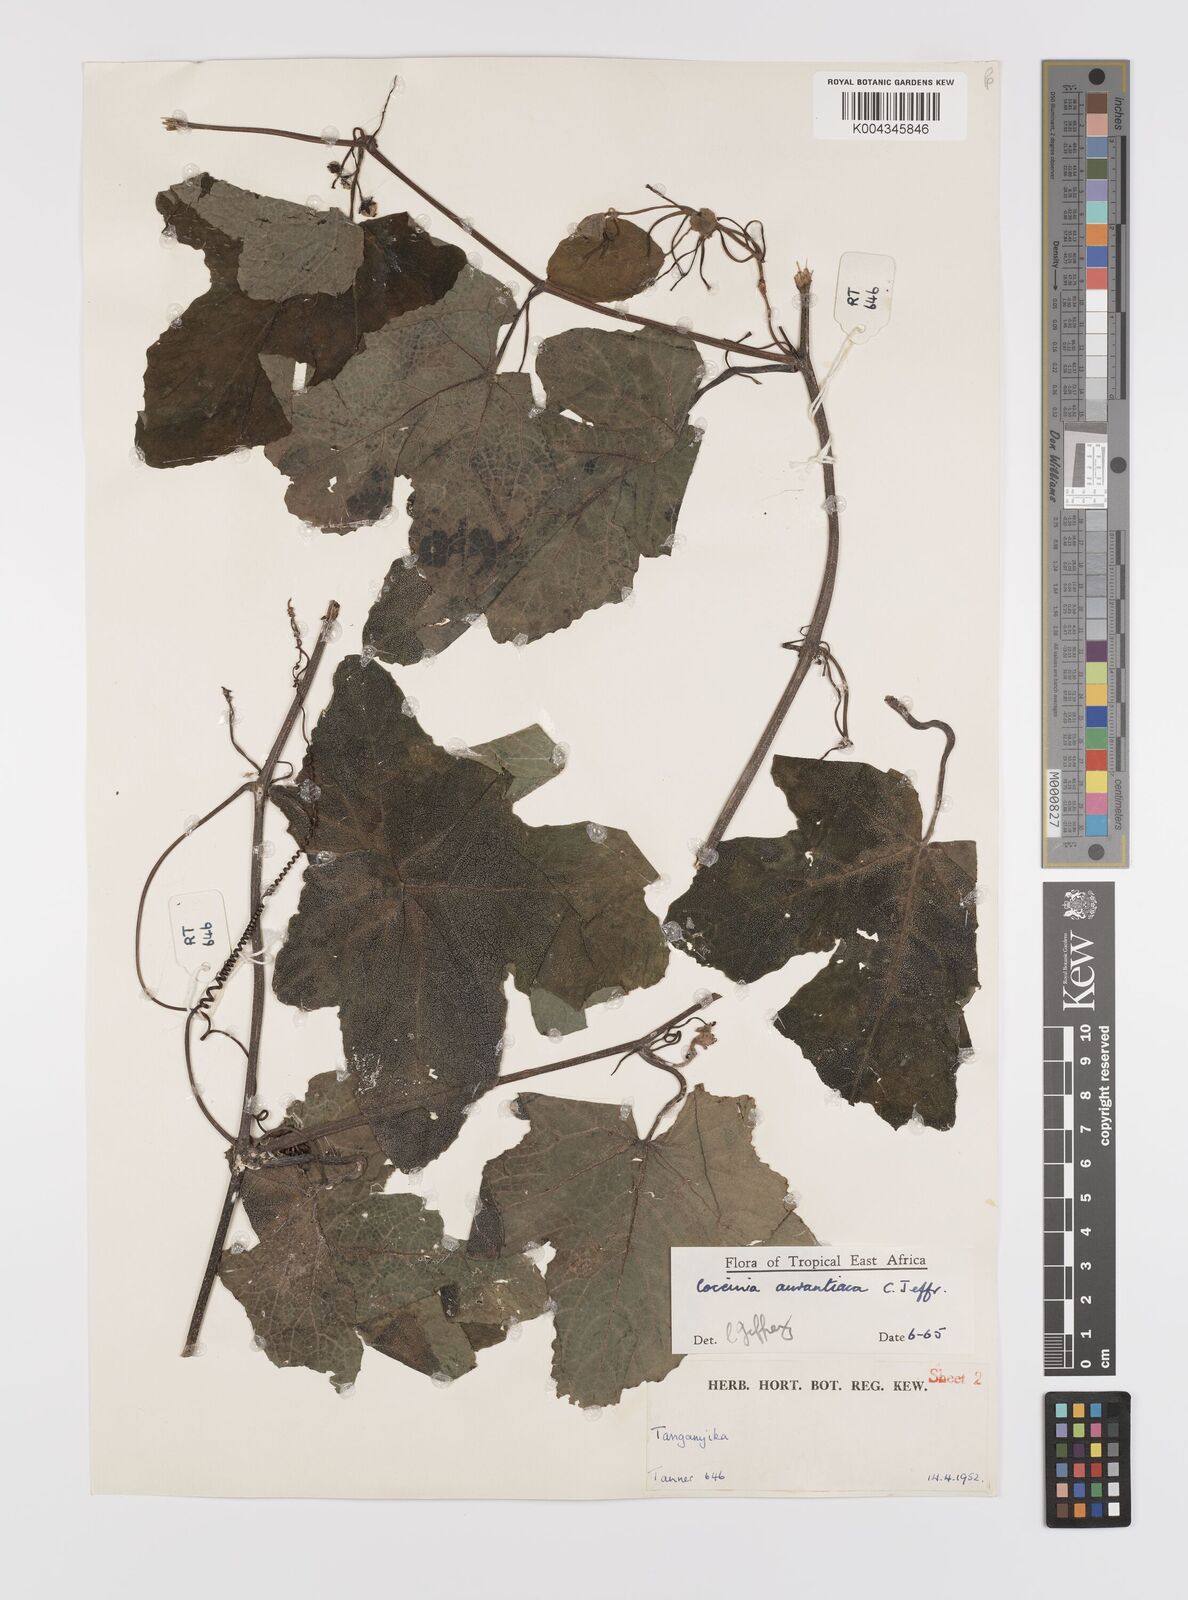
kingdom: Plantae
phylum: Tracheophyta
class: Magnoliopsida
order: Cucurbitales
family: Cucurbitaceae
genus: Coccinia
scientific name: Coccinia adoensis
